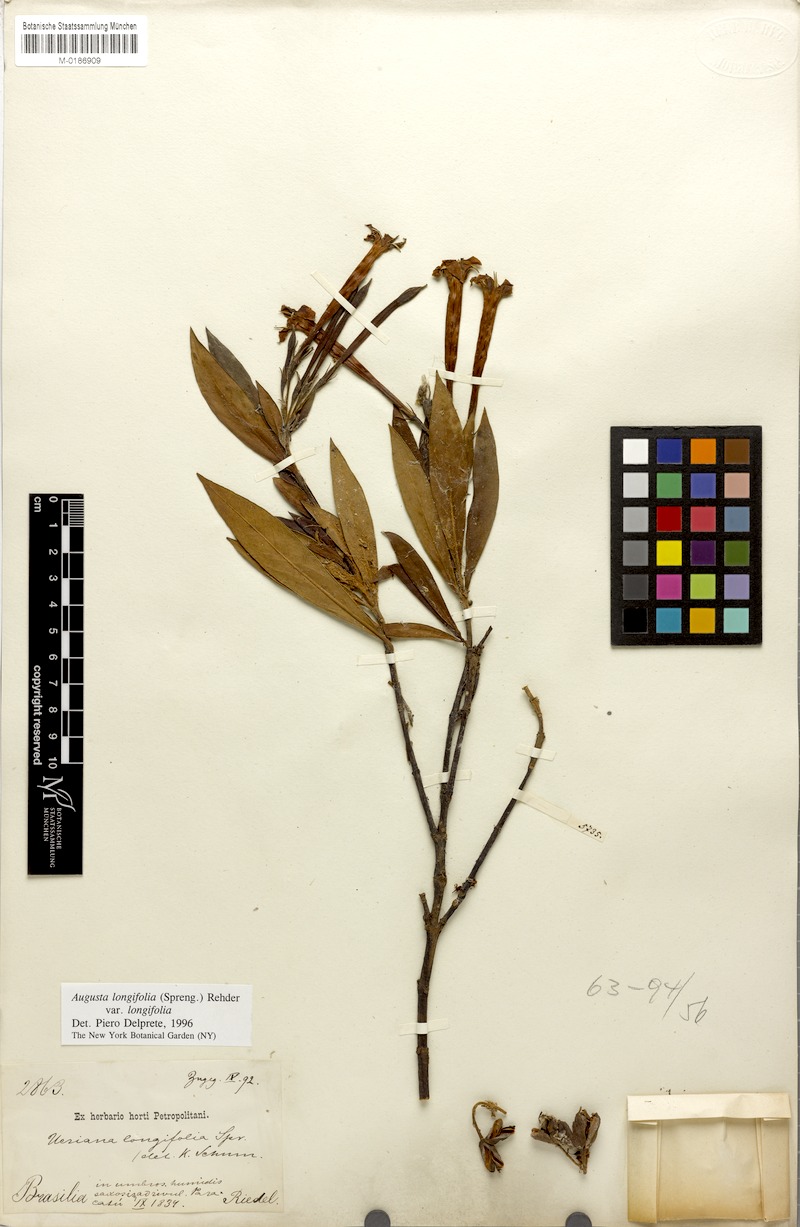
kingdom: Plantae
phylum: Tracheophyta
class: Magnoliopsida
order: Gentianales
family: Rubiaceae
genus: Augusta
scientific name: Augusta longifolia
